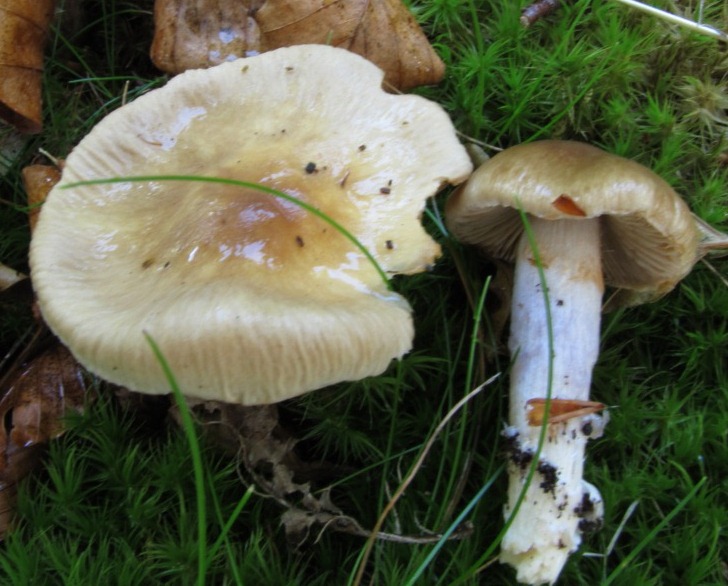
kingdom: Fungi
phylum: Basidiomycota
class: Agaricomycetes
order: Agaricales
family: Cortinariaceae
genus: Cortinarius
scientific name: Cortinarius elatior
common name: høj slørhat
